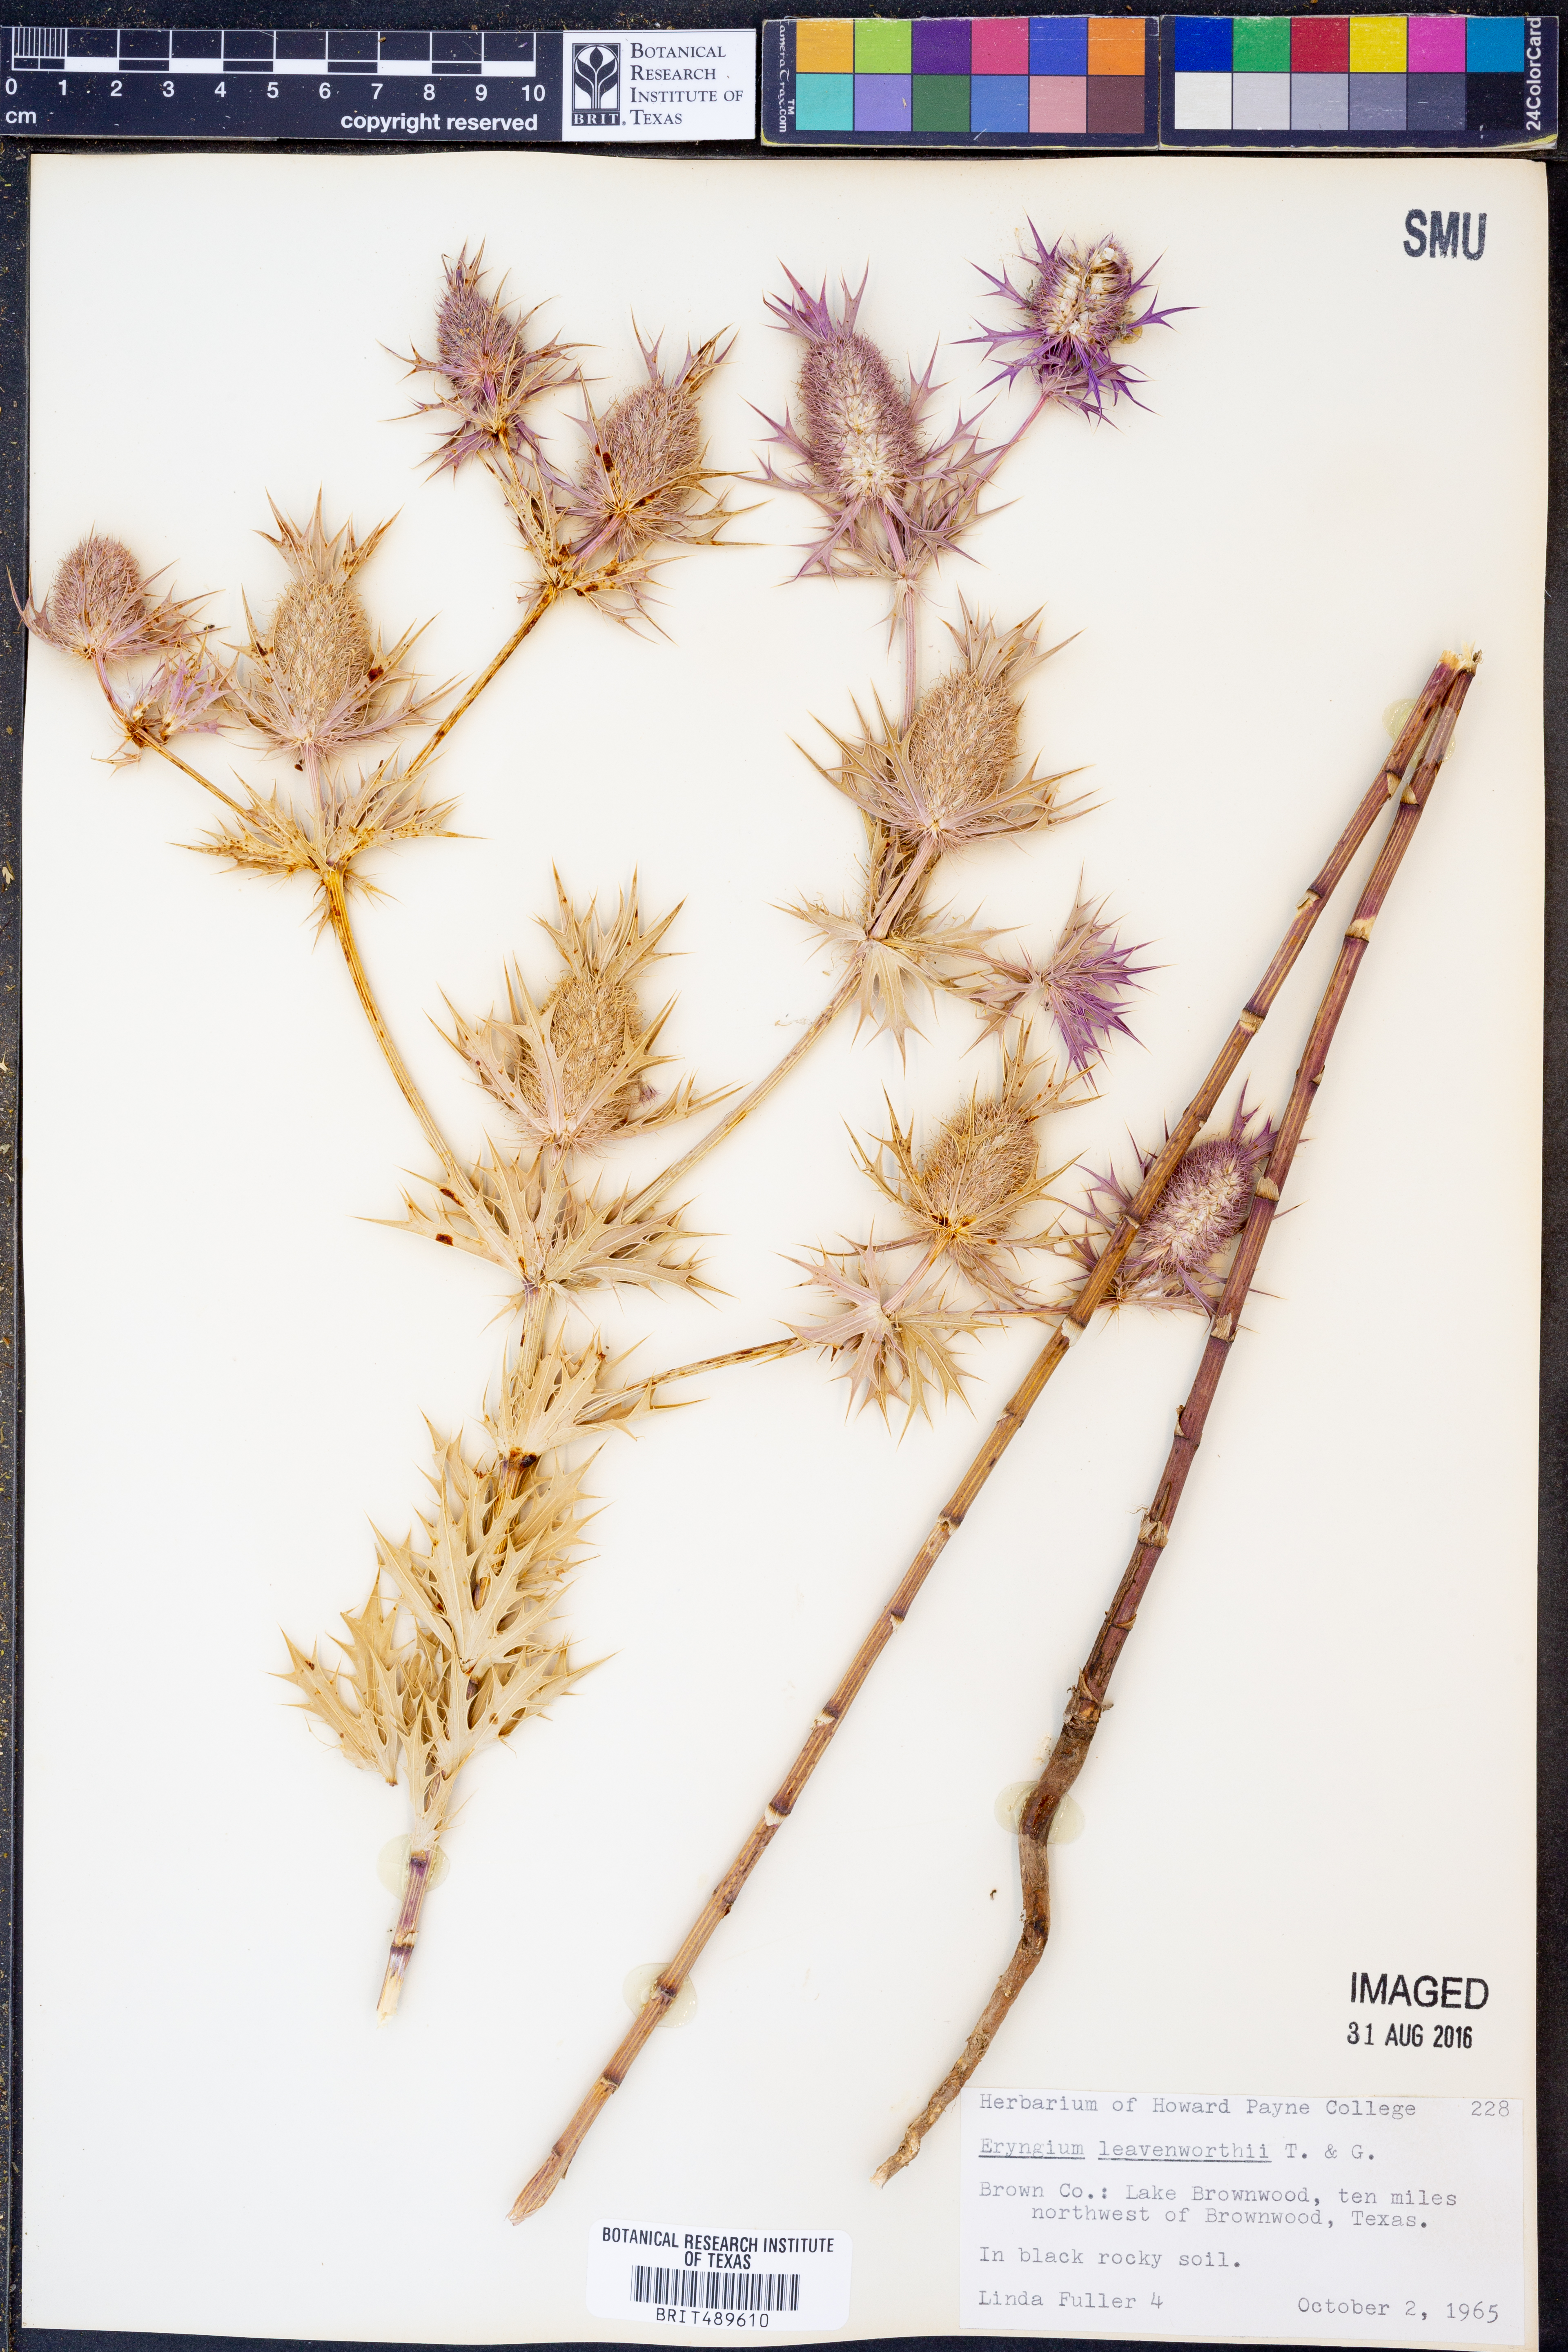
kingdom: Plantae
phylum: Tracheophyta
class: Magnoliopsida
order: Apiales
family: Apiaceae
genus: Eryngium
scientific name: Eryngium leavenworthii
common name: Leavenworth's eryngo
